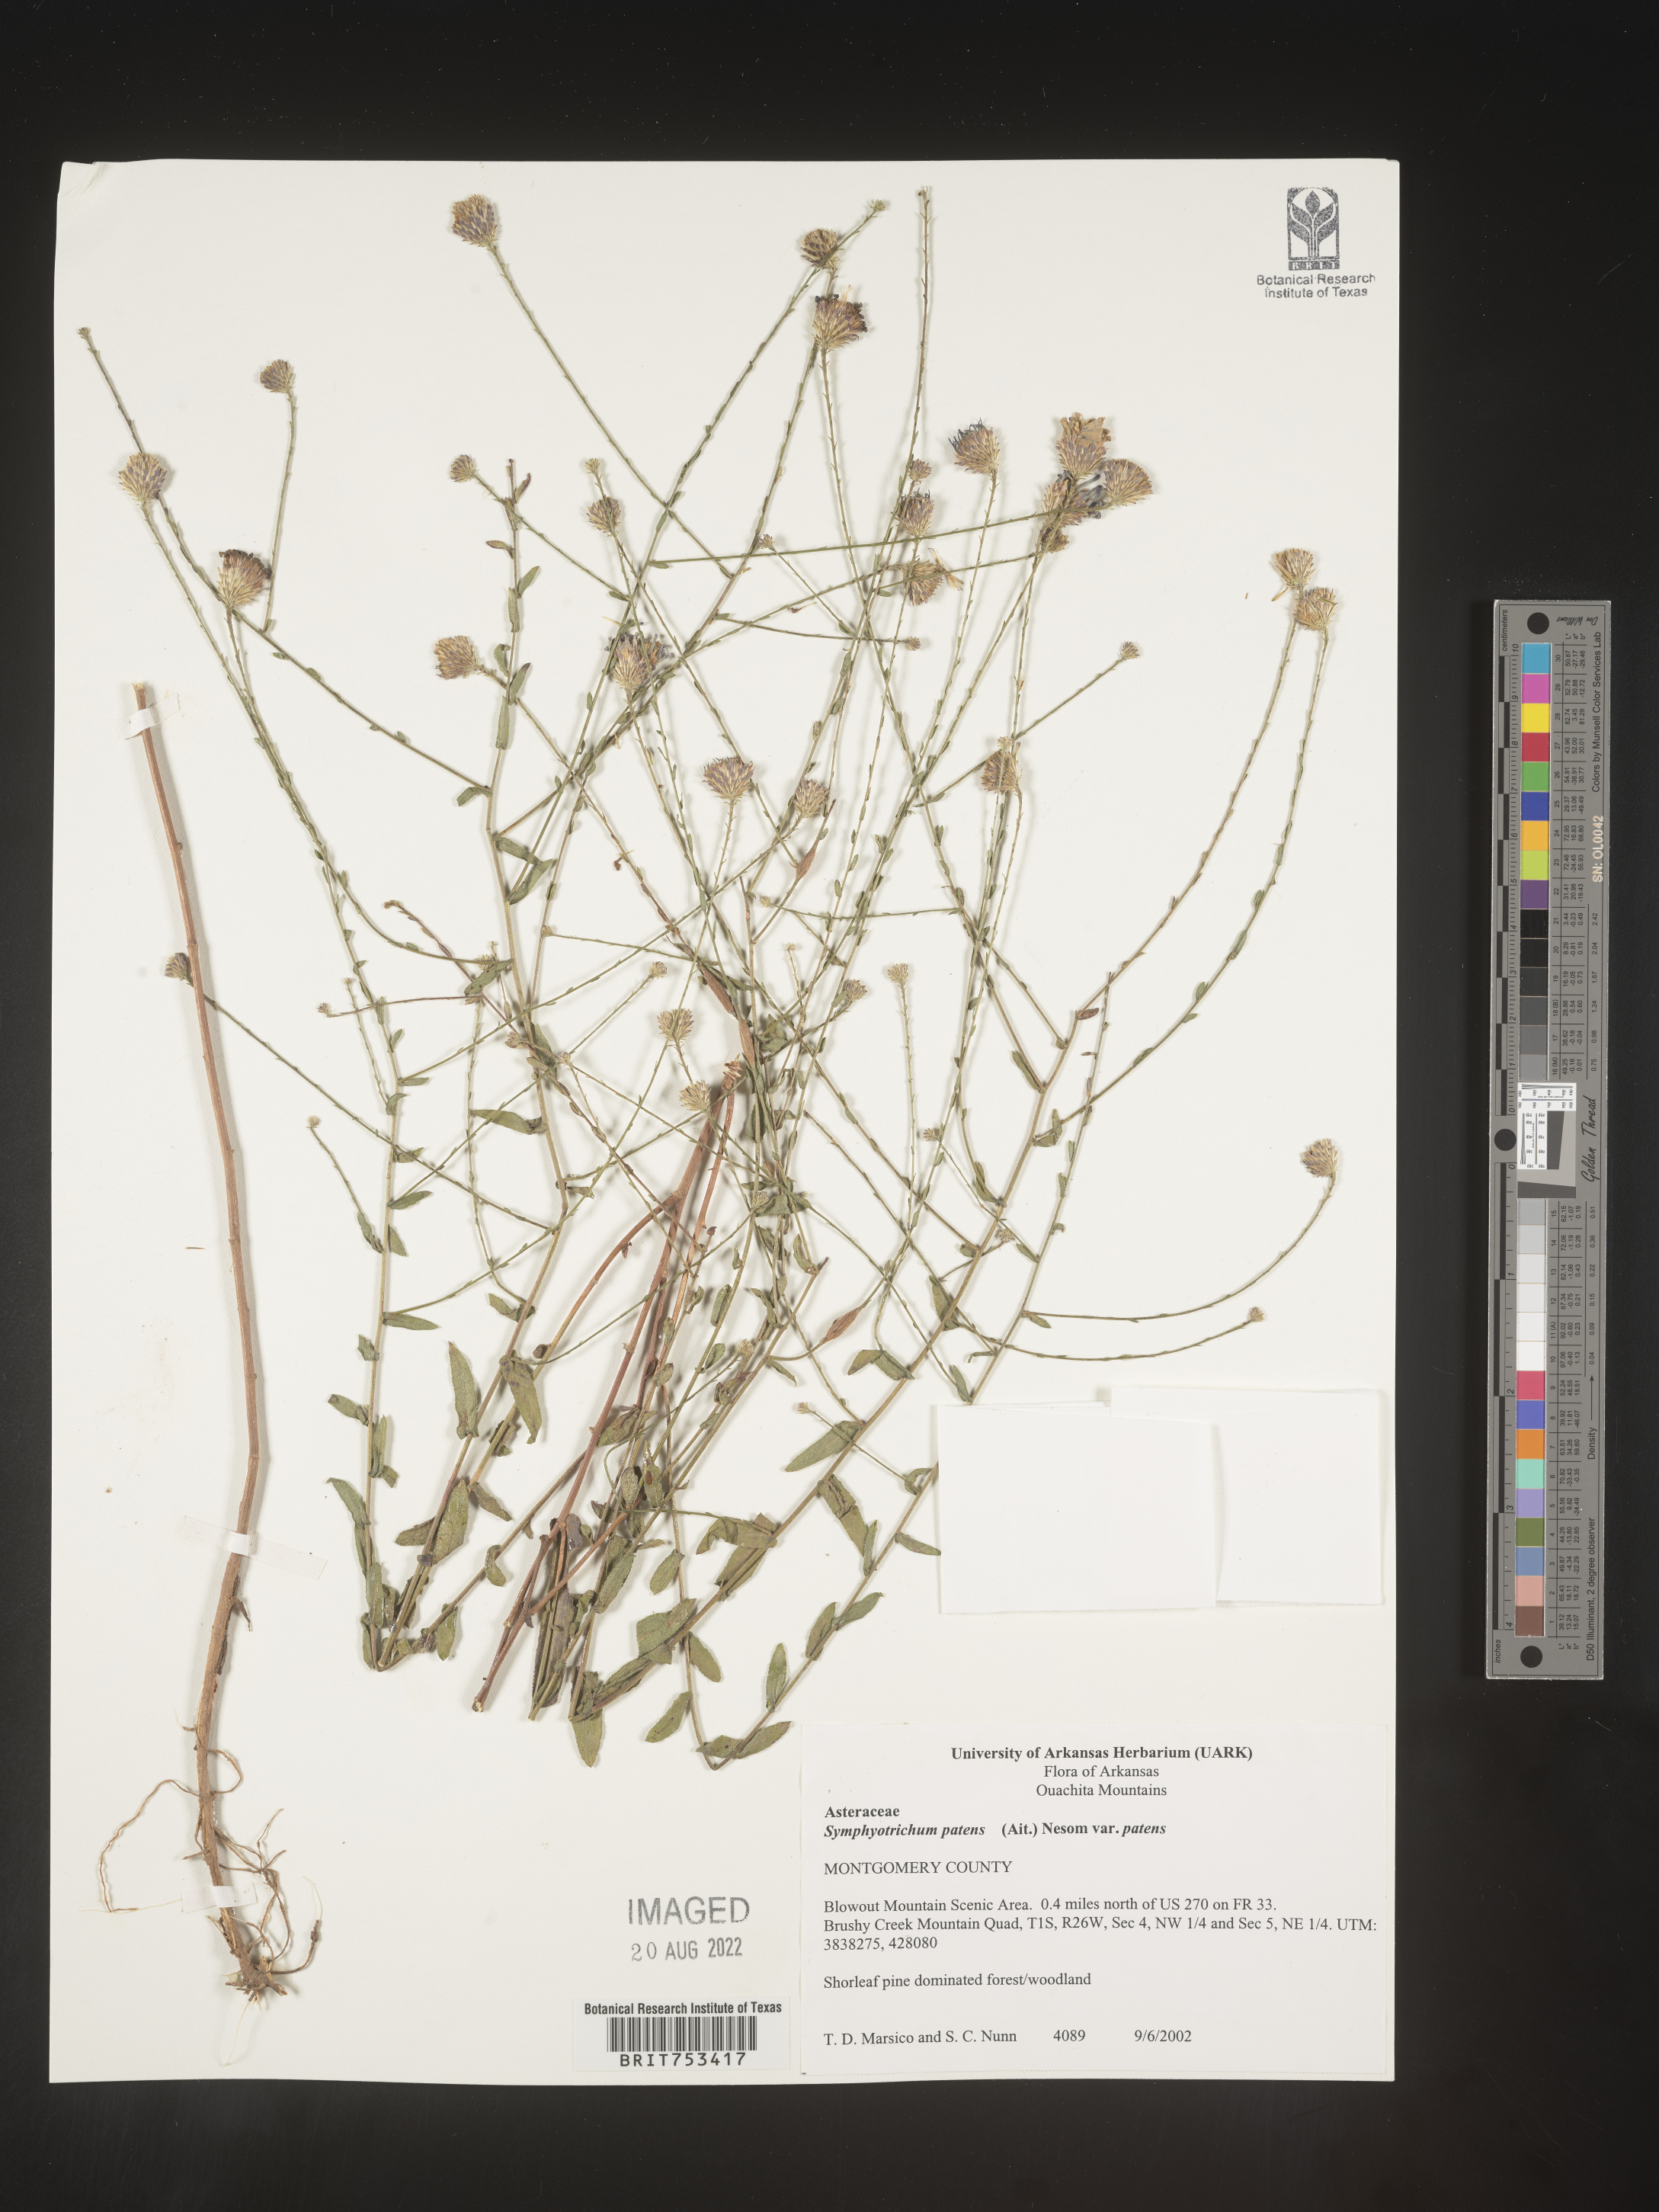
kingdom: Plantae
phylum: Tracheophyta
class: Magnoliopsida
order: Asterales
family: Asteraceae
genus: Symphyotrichum
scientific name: Symphyotrichum patens
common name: Late purple aster
